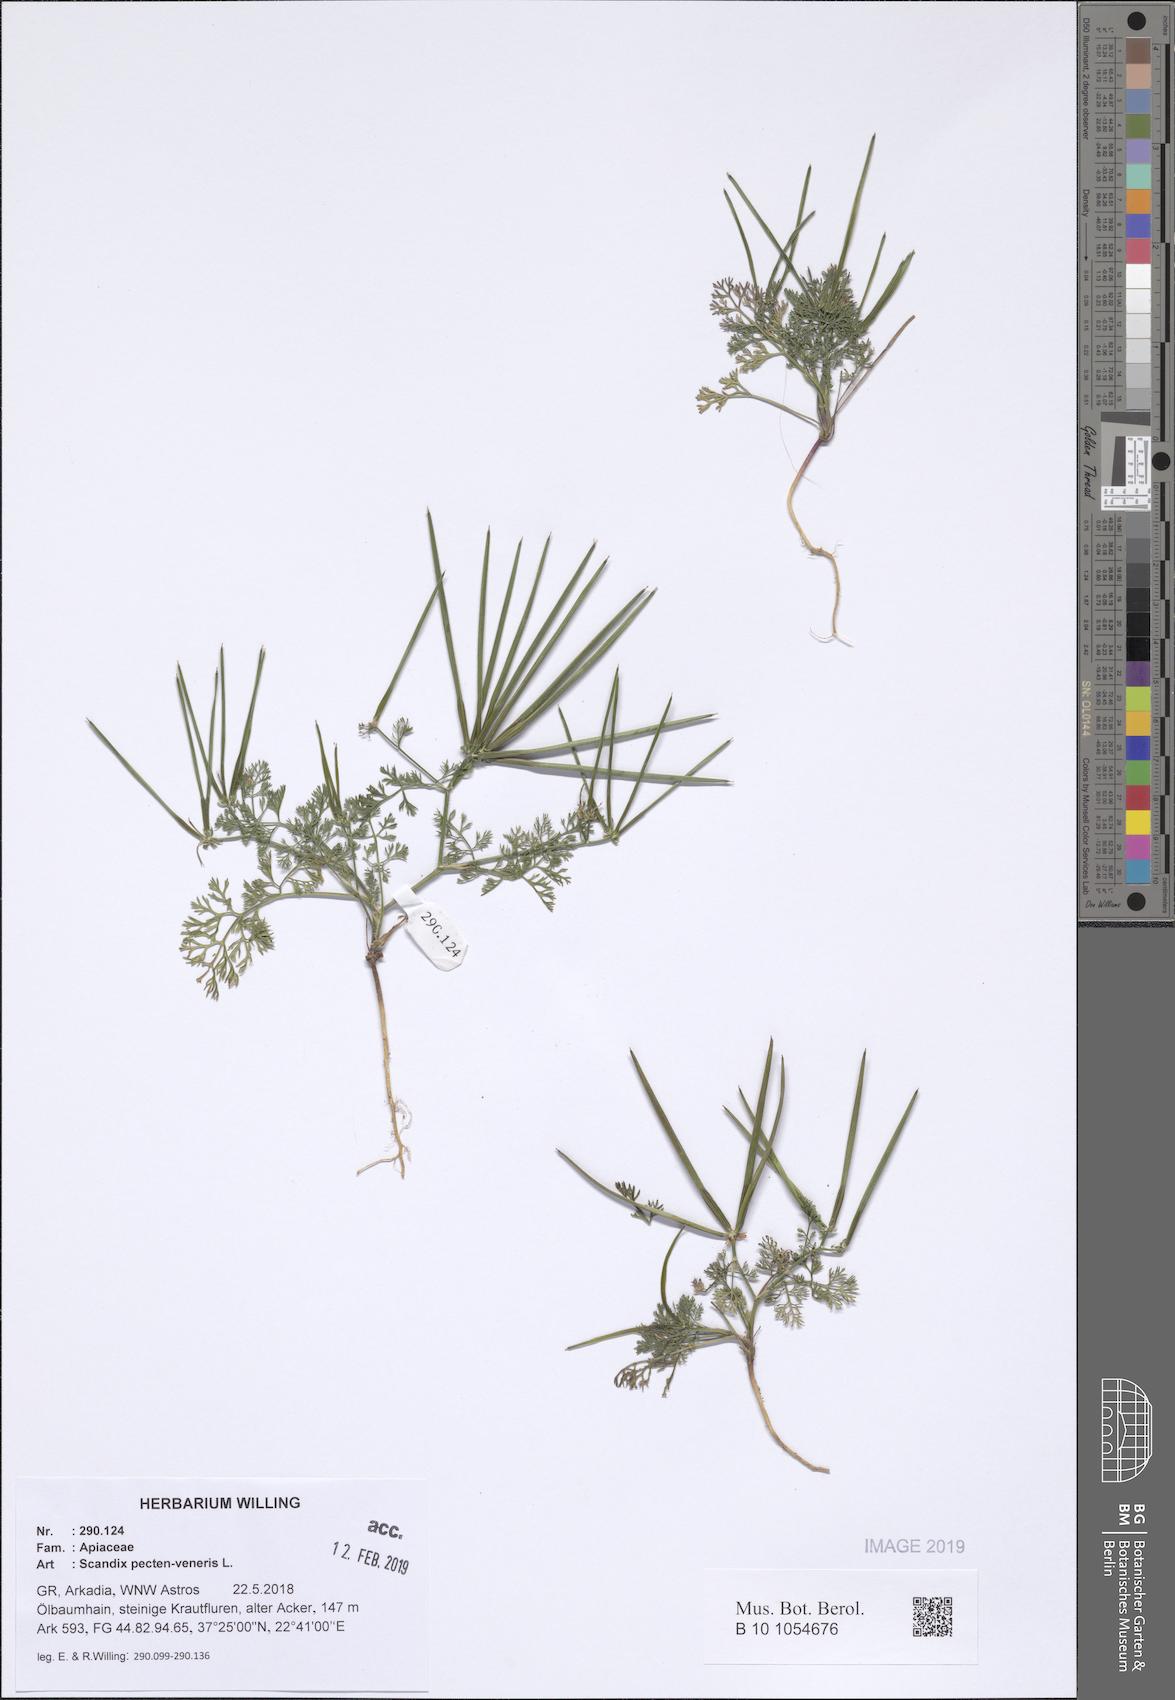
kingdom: Plantae
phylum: Tracheophyta
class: Magnoliopsida
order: Apiales
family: Apiaceae
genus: Scandix
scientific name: Scandix pecten-veneris
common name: Shepherd's-needle
